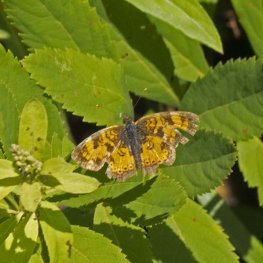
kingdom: Animalia
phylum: Arthropoda
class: Insecta
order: Lepidoptera
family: Nymphalidae
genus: Phyciodes
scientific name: Phyciodes tharos
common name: Northern Crescent
